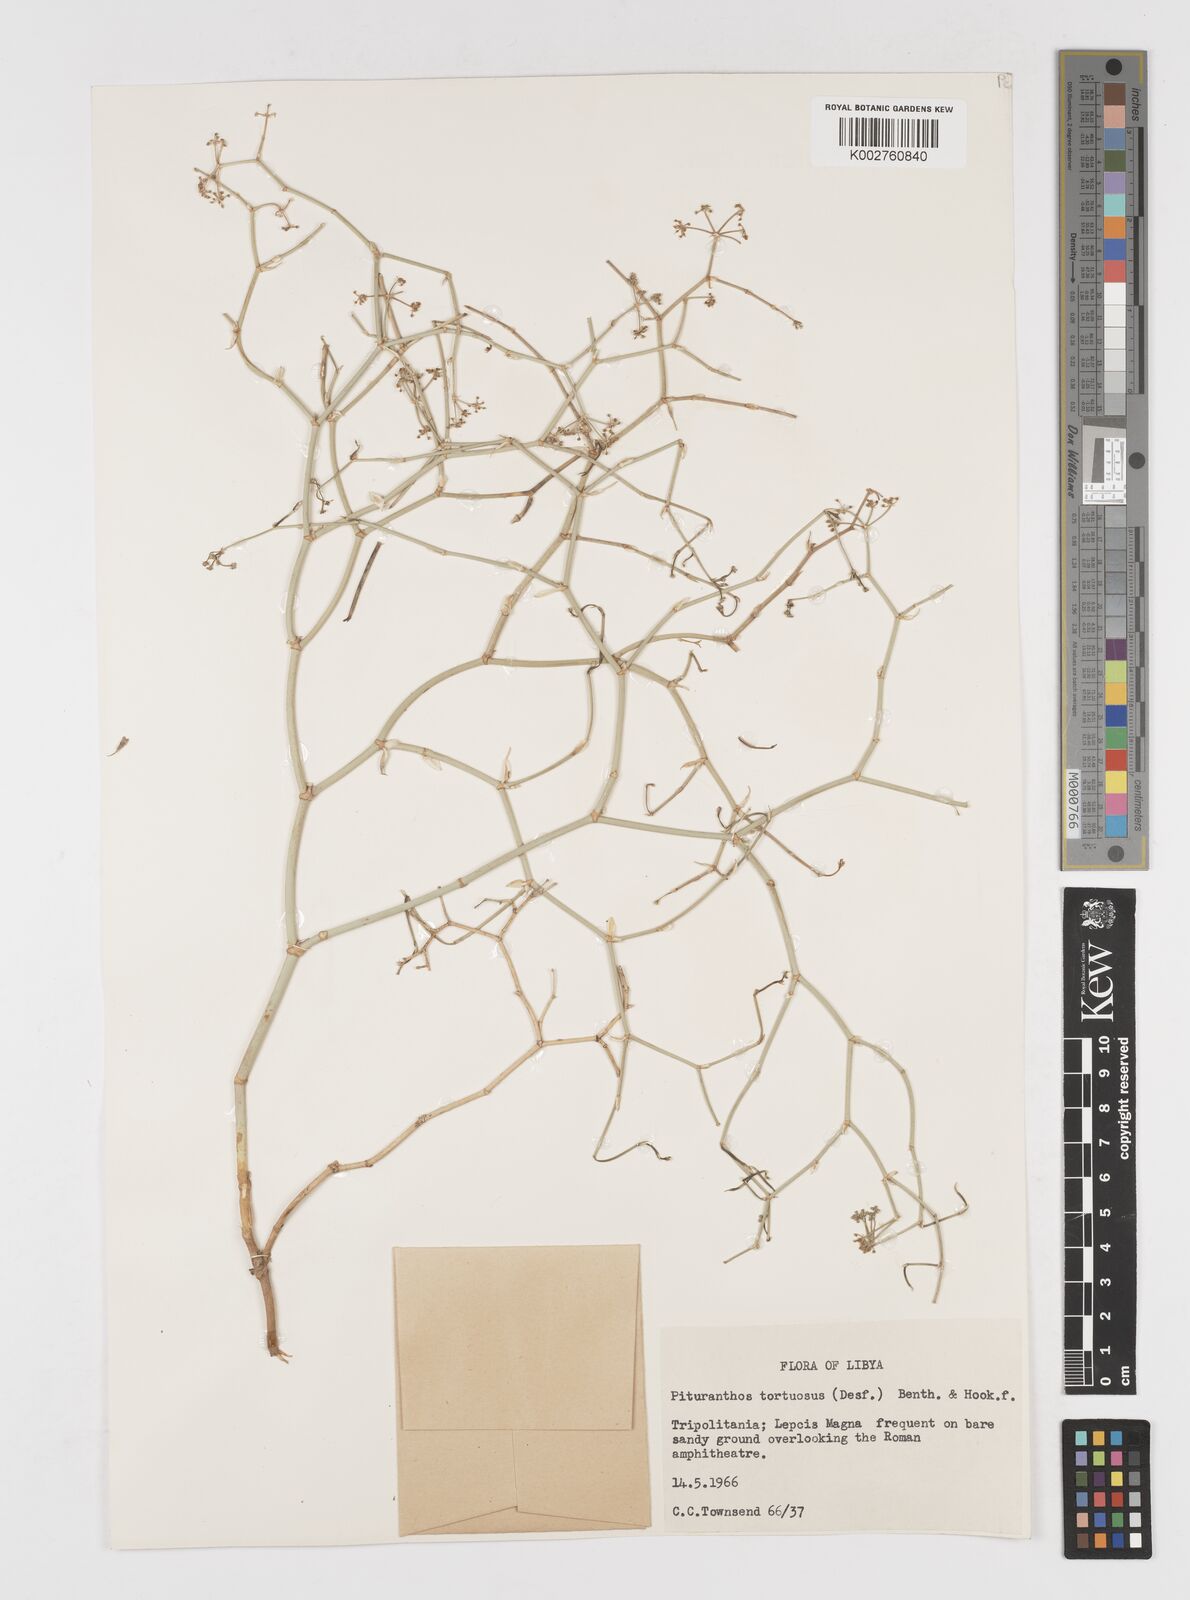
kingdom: Plantae
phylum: Tracheophyta
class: Magnoliopsida
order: Apiales
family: Apiaceae
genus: Deverra
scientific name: Deverra tortuosa
